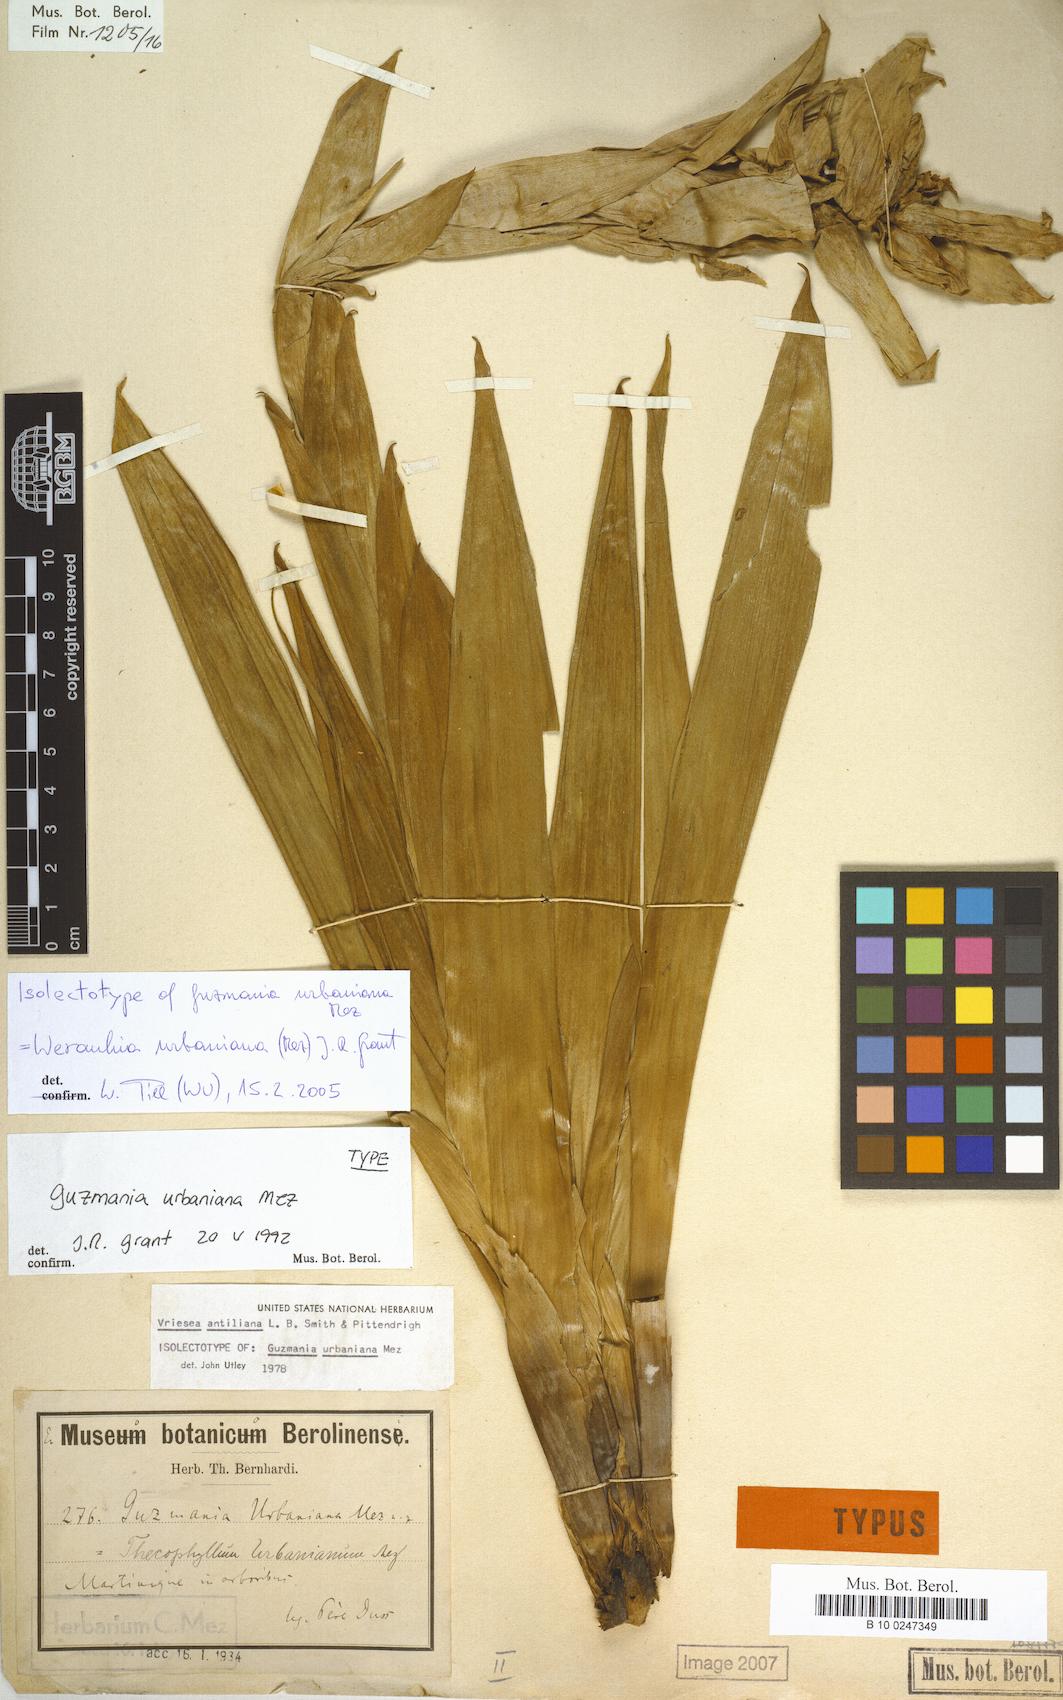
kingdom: Plantae
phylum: Tracheophyta
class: Liliopsida
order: Poales
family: Bromeliaceae
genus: Werauhia
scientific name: Werauhia urbaniana
